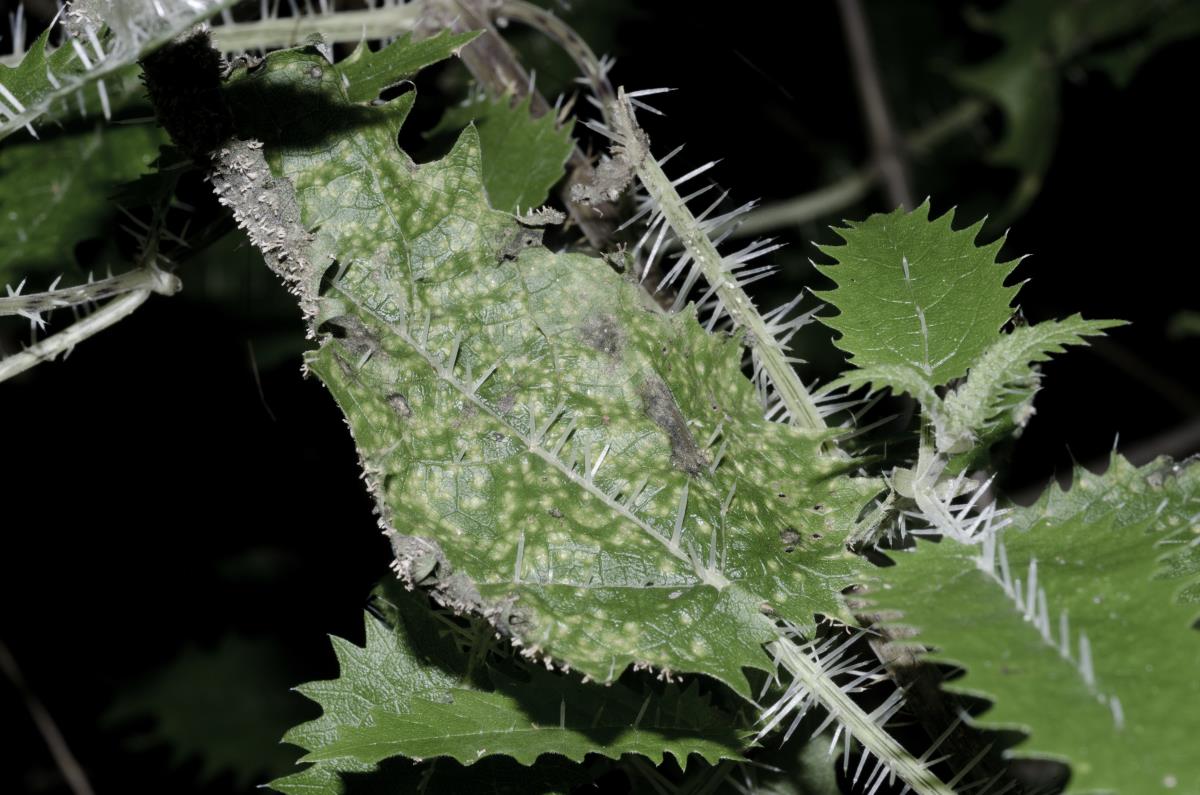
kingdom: Fungi
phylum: Basidiomycota
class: Pucciniomycetes
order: Pucciniales
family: Pucciniaceae
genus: Puccinia
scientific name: Puccinia urticata
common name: Nettle clustercup rust fungus
